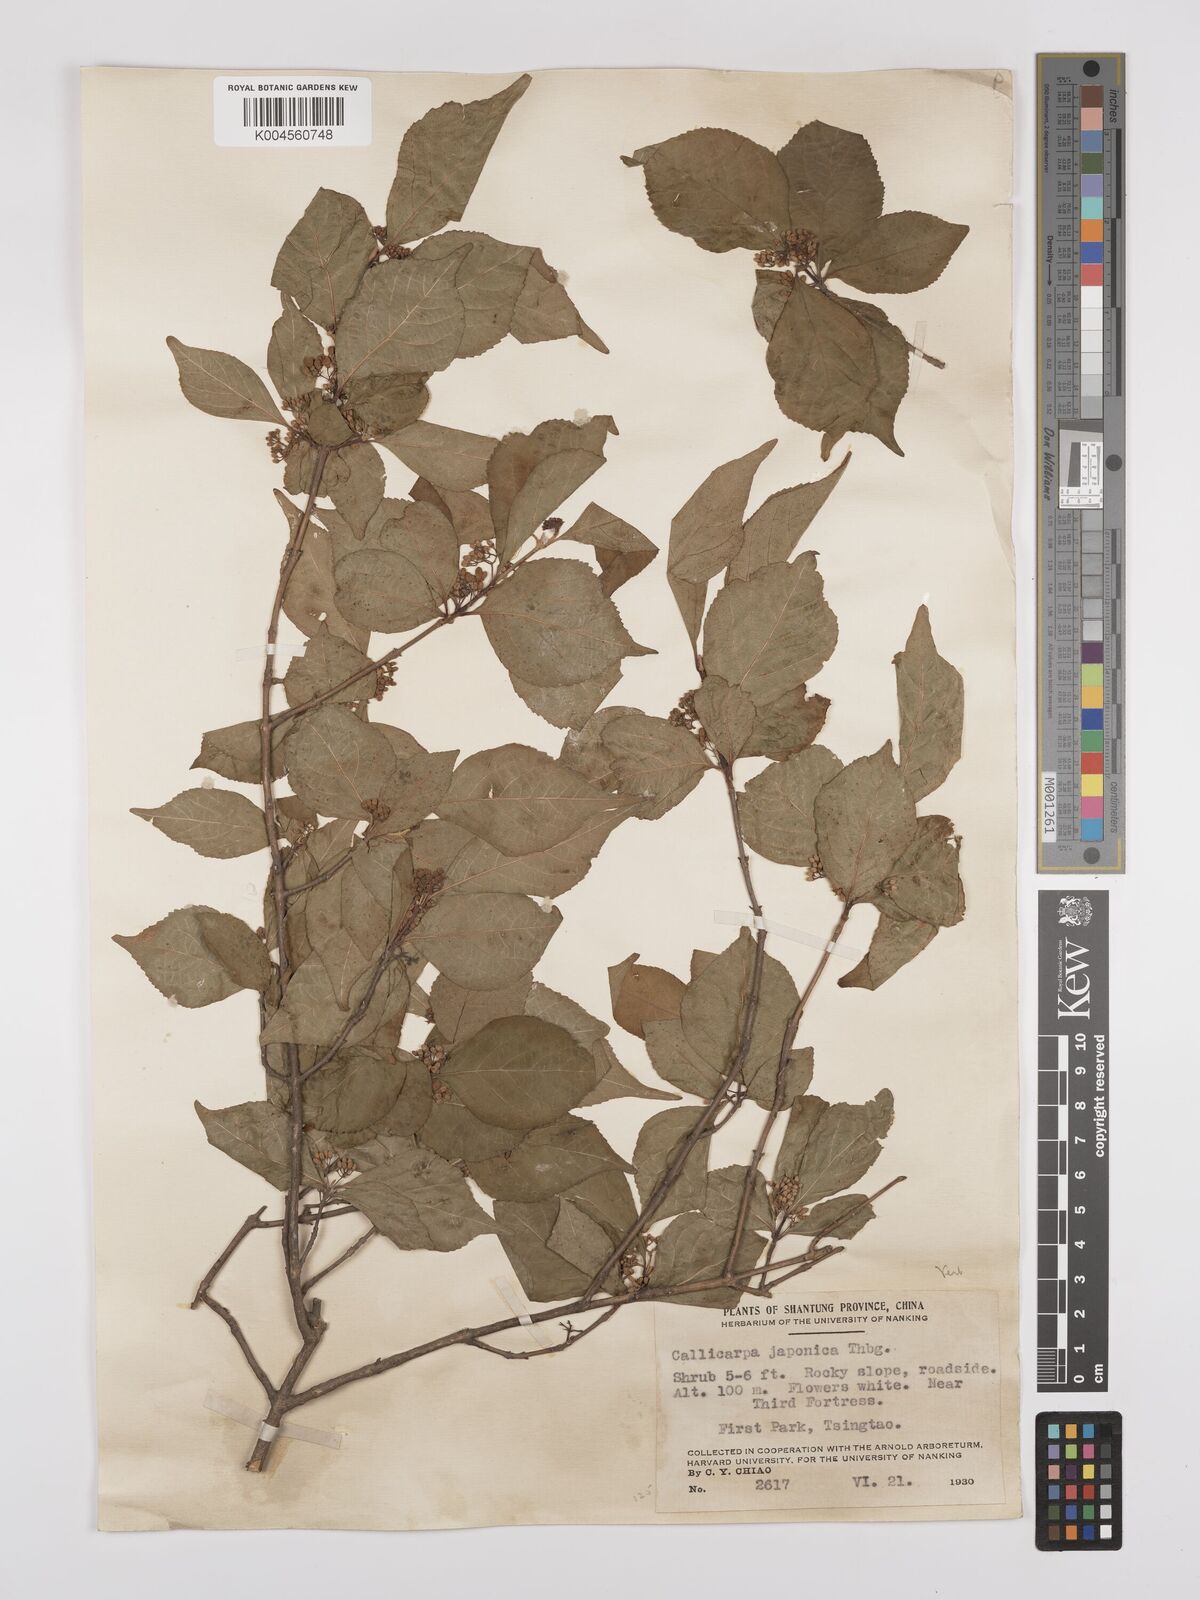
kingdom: Plantae
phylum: Tracheophyta
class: Magnoliopsida
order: Lamiales
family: Lamiaceae
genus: Callicarpa
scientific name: Callicarpa japonica
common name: Japanese beauty-berry
